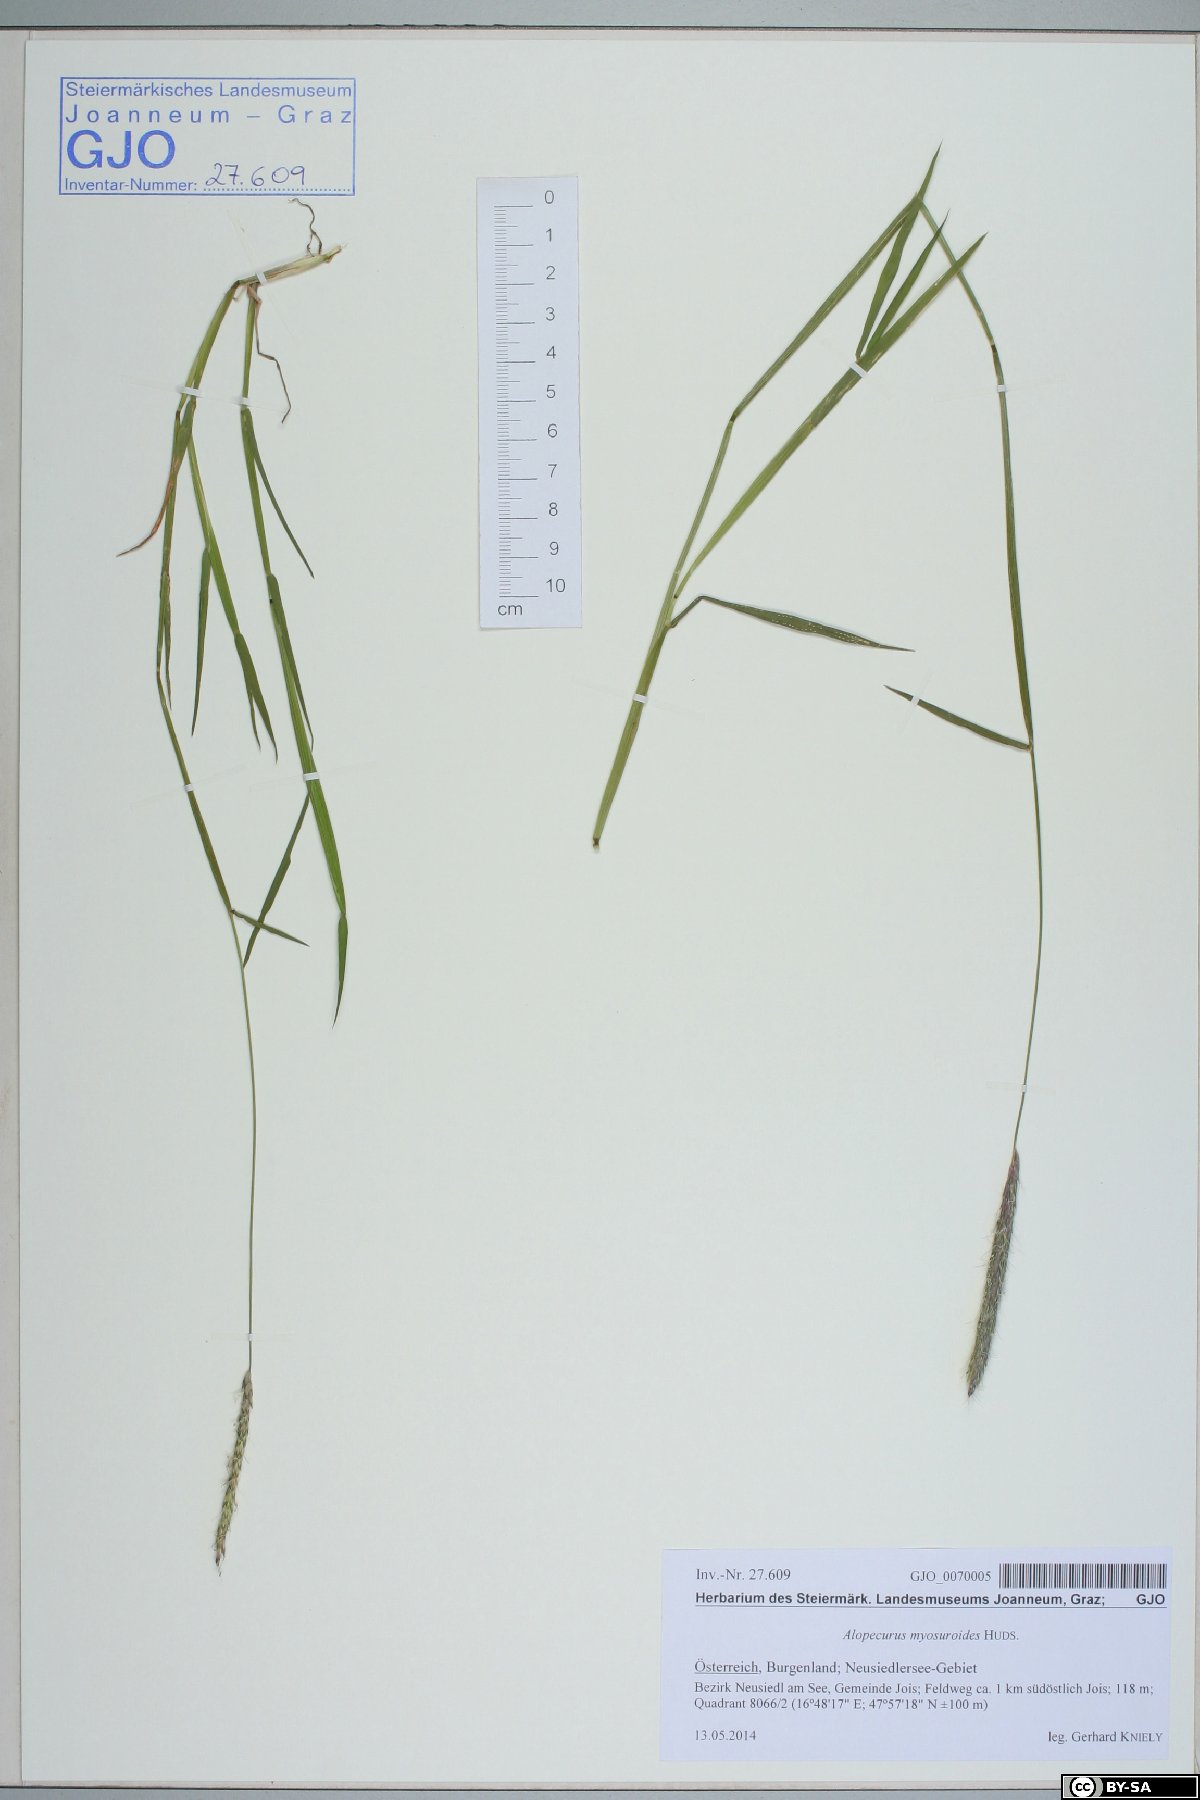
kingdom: Plantae
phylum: Tracheophyta
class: Liliopsida
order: Poales
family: Poaceae
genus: Alopecurus
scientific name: Alopecurus myosuroides
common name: Black-grass
